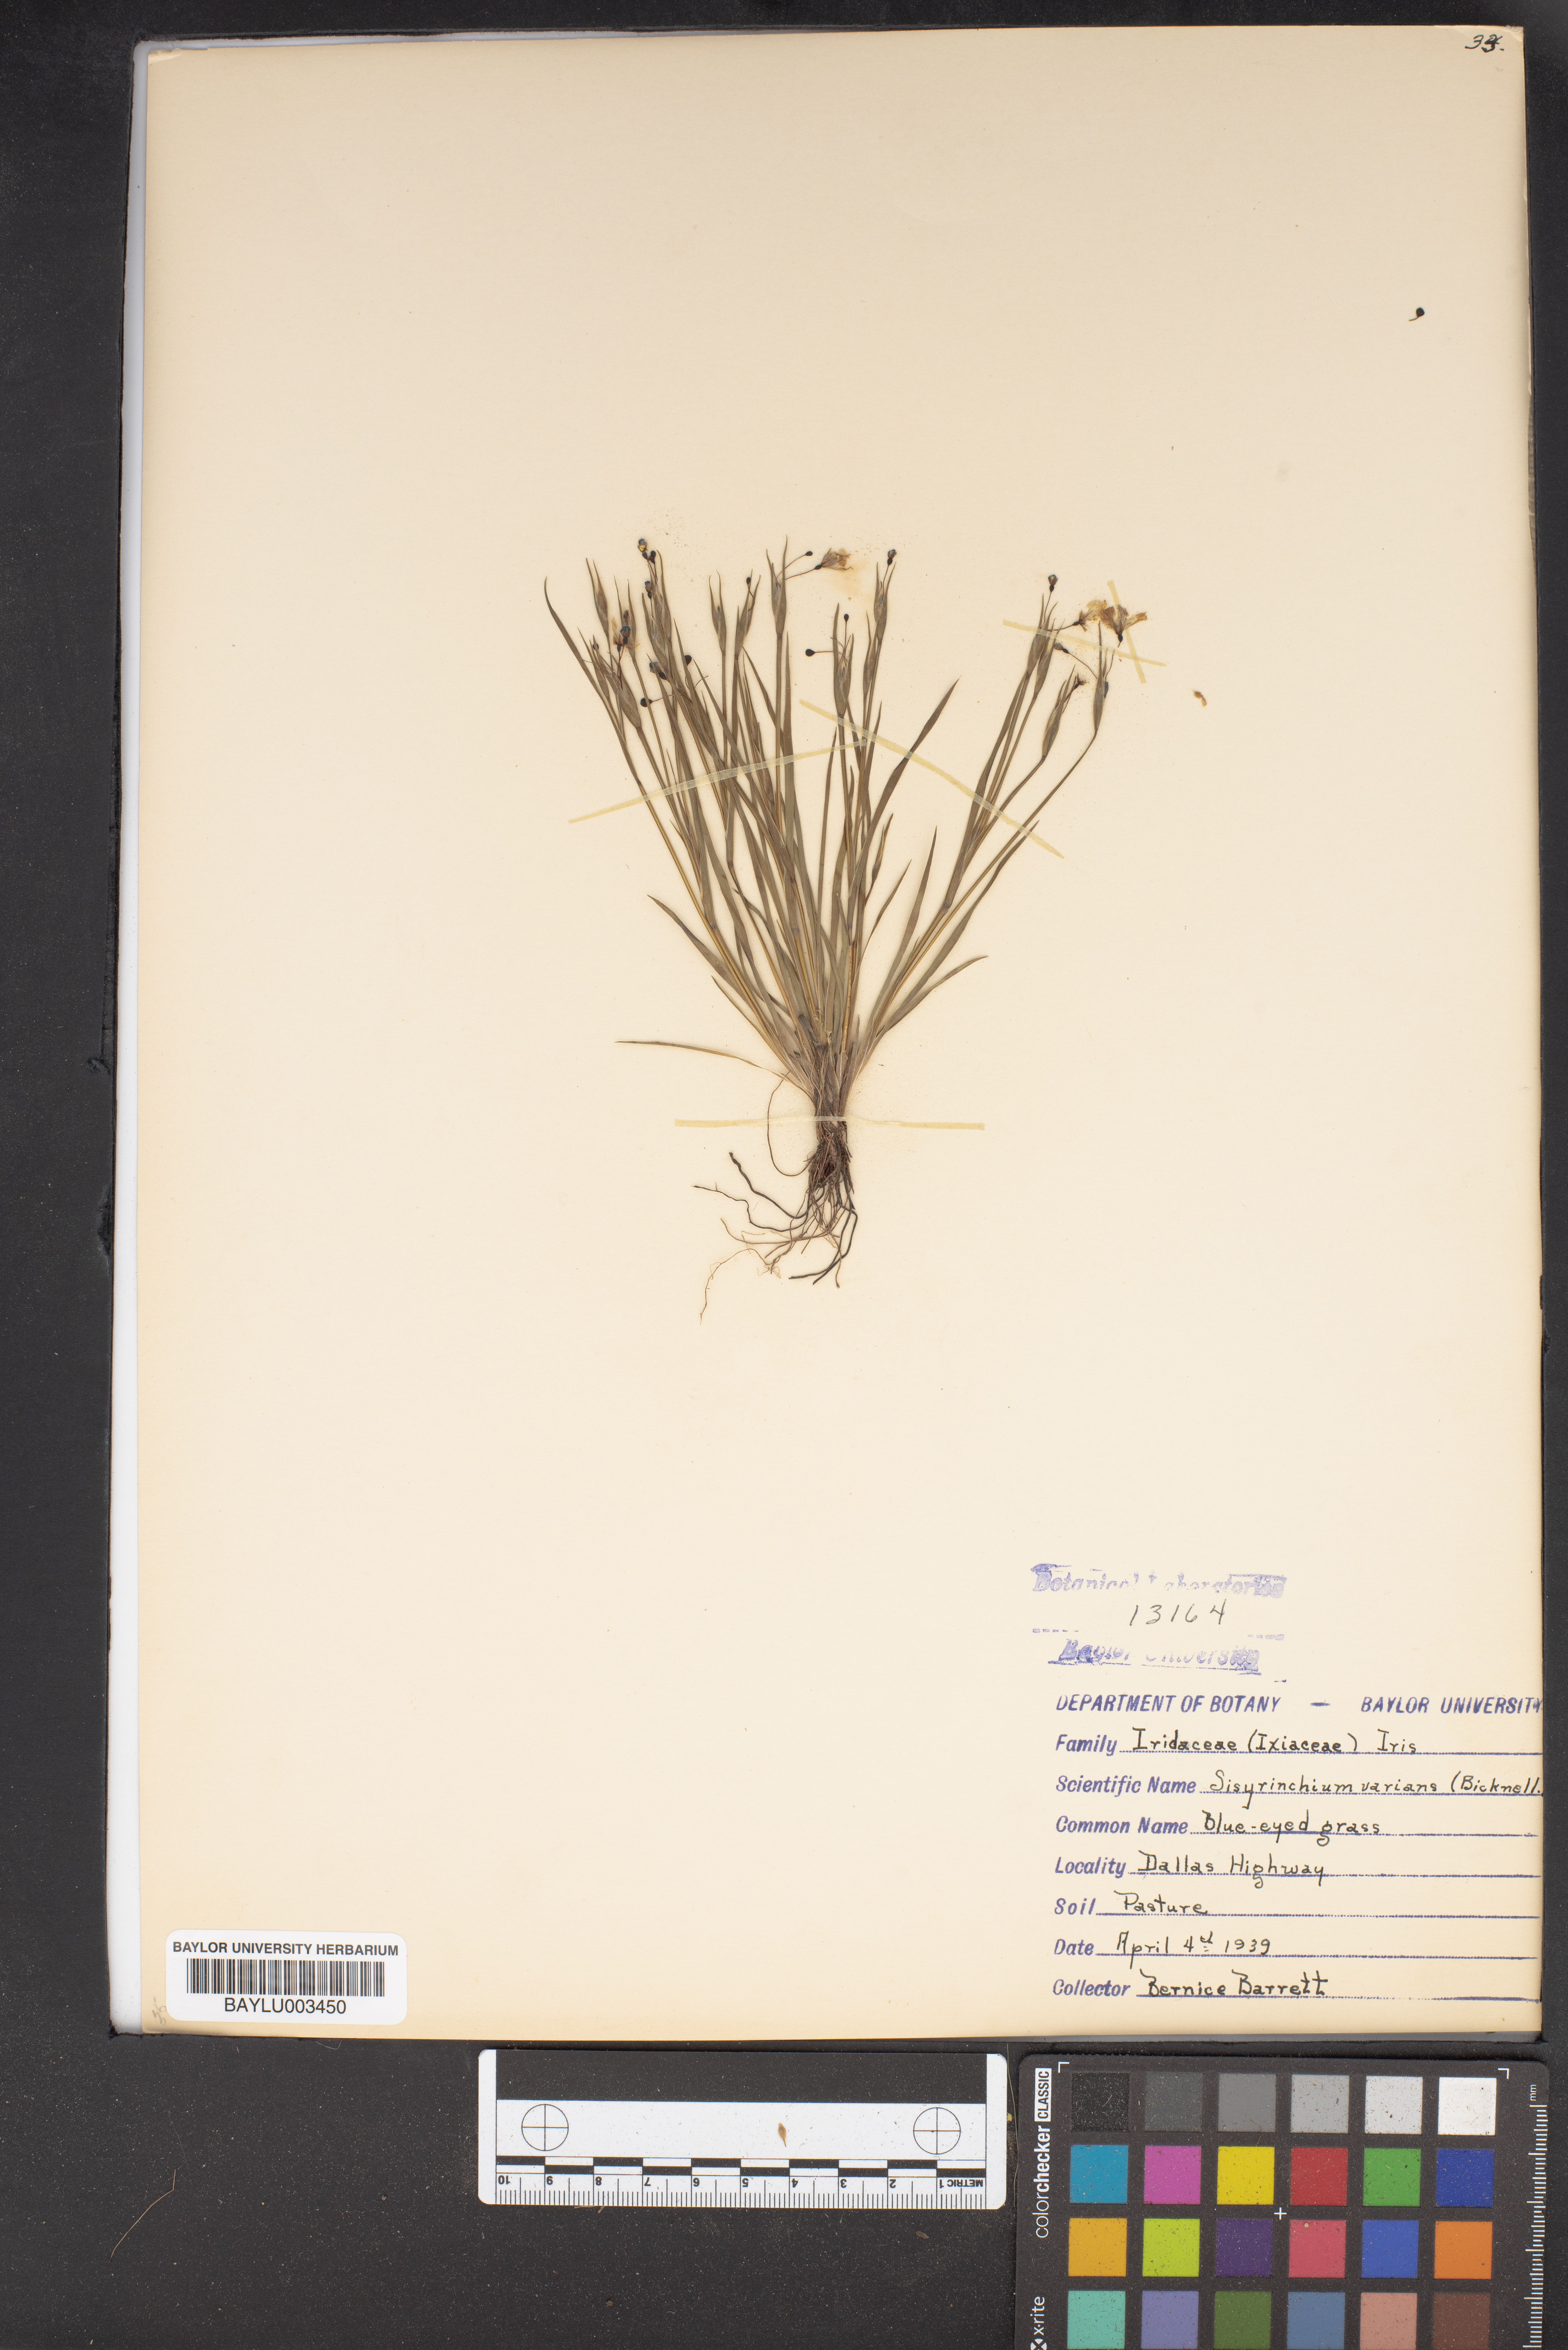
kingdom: Plantae
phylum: Tracheophyta
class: Liliopsida
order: Asparagales
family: Iridaceae
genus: Sisyrinchium
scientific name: Sisyrinchium pruinosum
